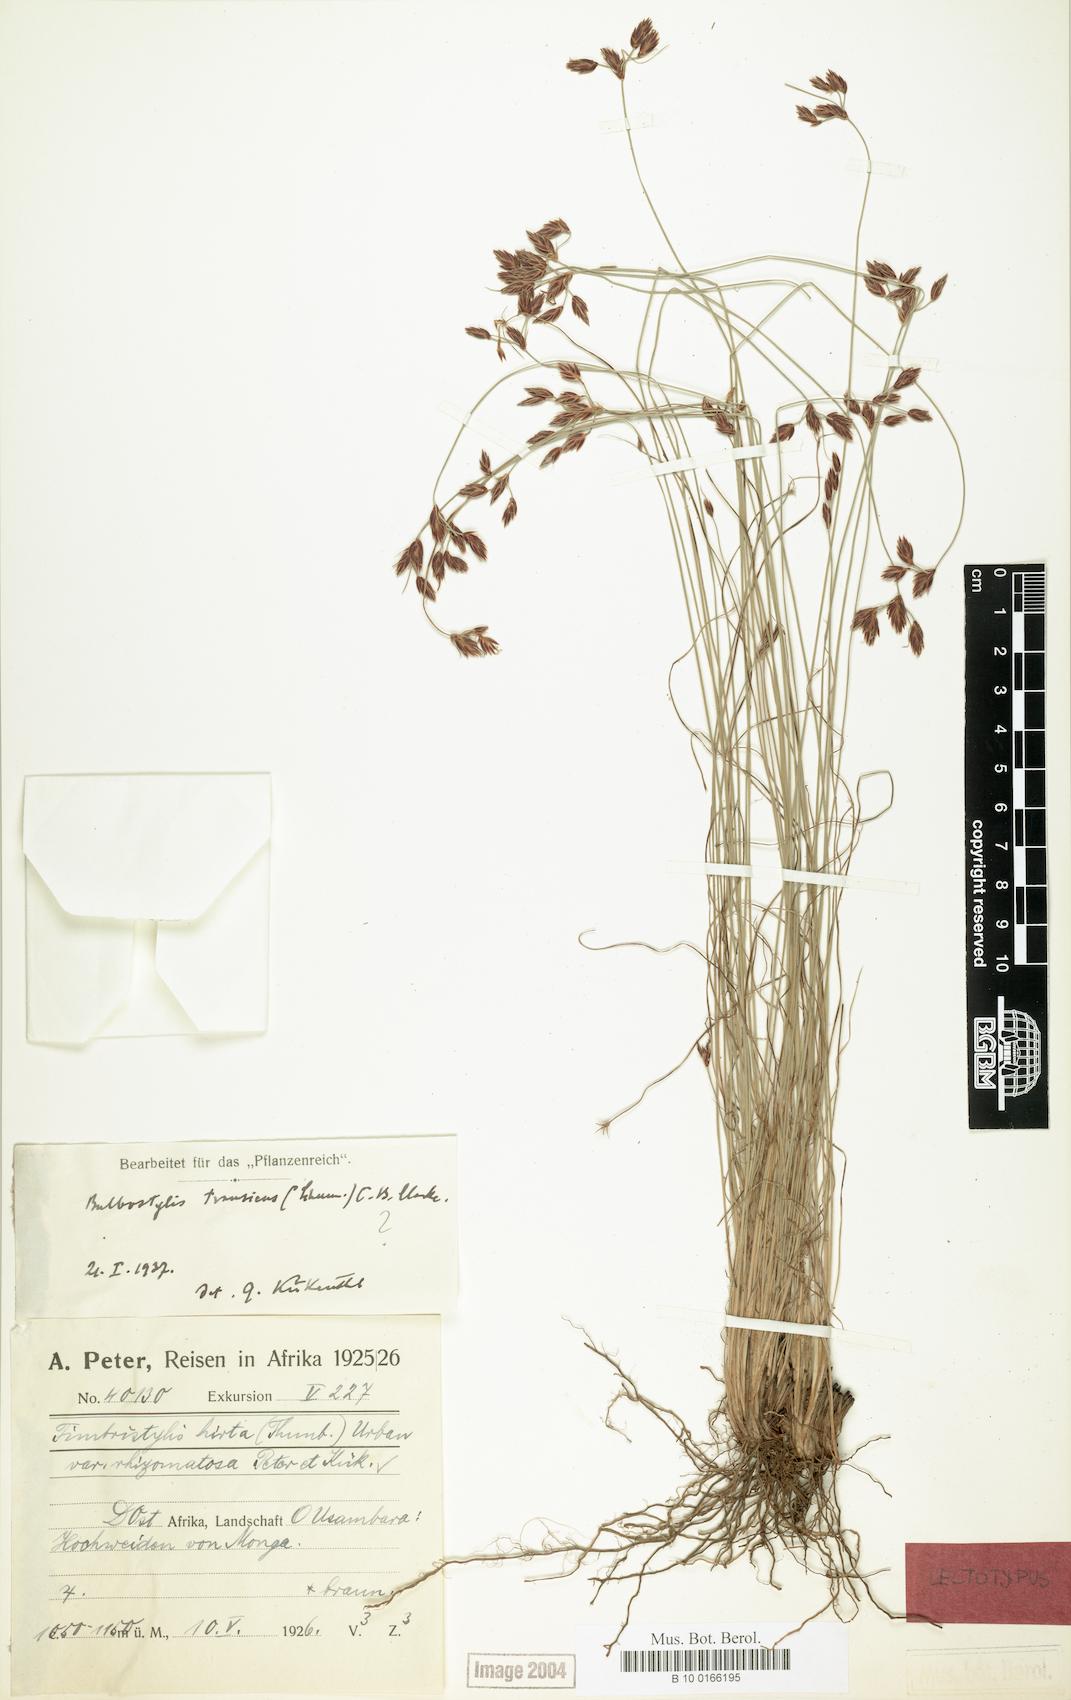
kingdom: Plantae
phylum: Tracheophyta
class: Liliopsida
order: Poales
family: Cyperaceae
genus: Bulbostylis
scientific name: Bulbostylis boeckeleriana
